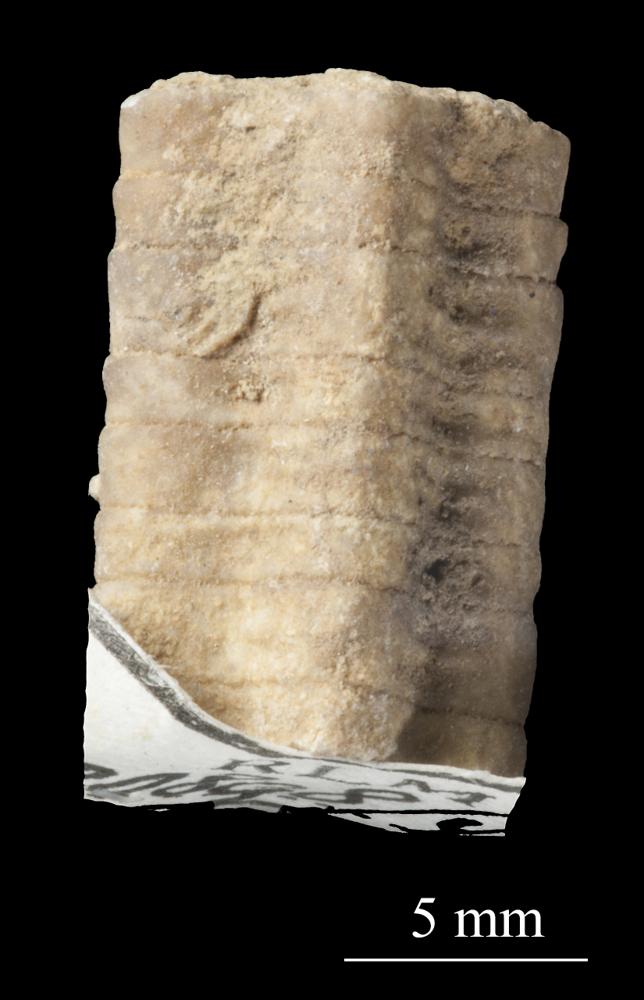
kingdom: Animalia
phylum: Echinodermata
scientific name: Echinodermata
